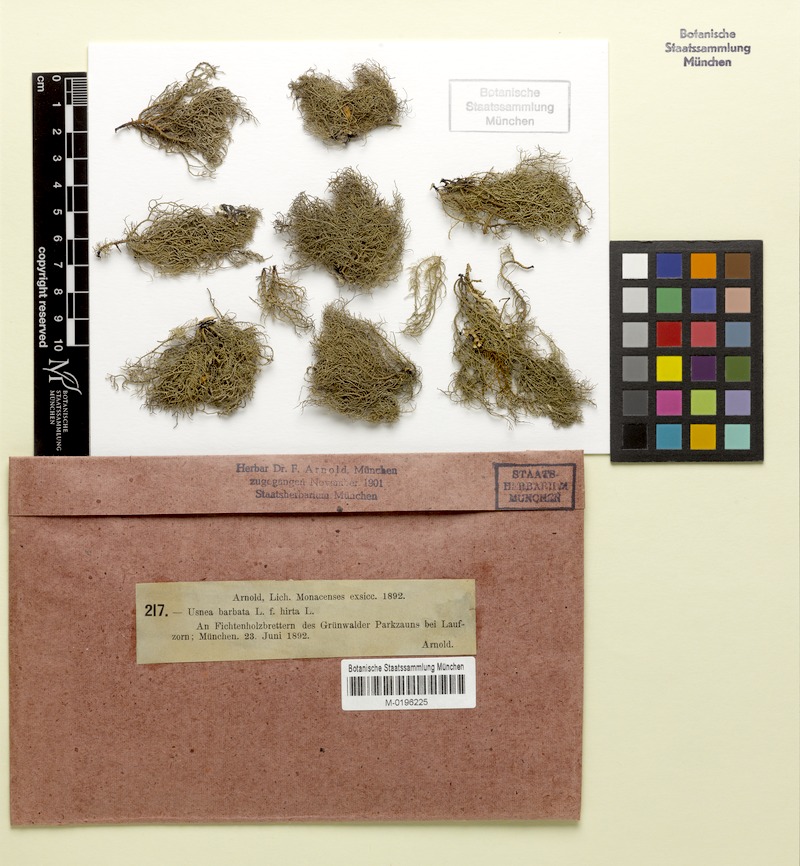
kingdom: Fungi
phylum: Ascomycota
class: Lecanoromycetes
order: Lecanorales
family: Parmeliaceae
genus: Usnea
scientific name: Usnea hirta
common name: Bristly beard lichen
